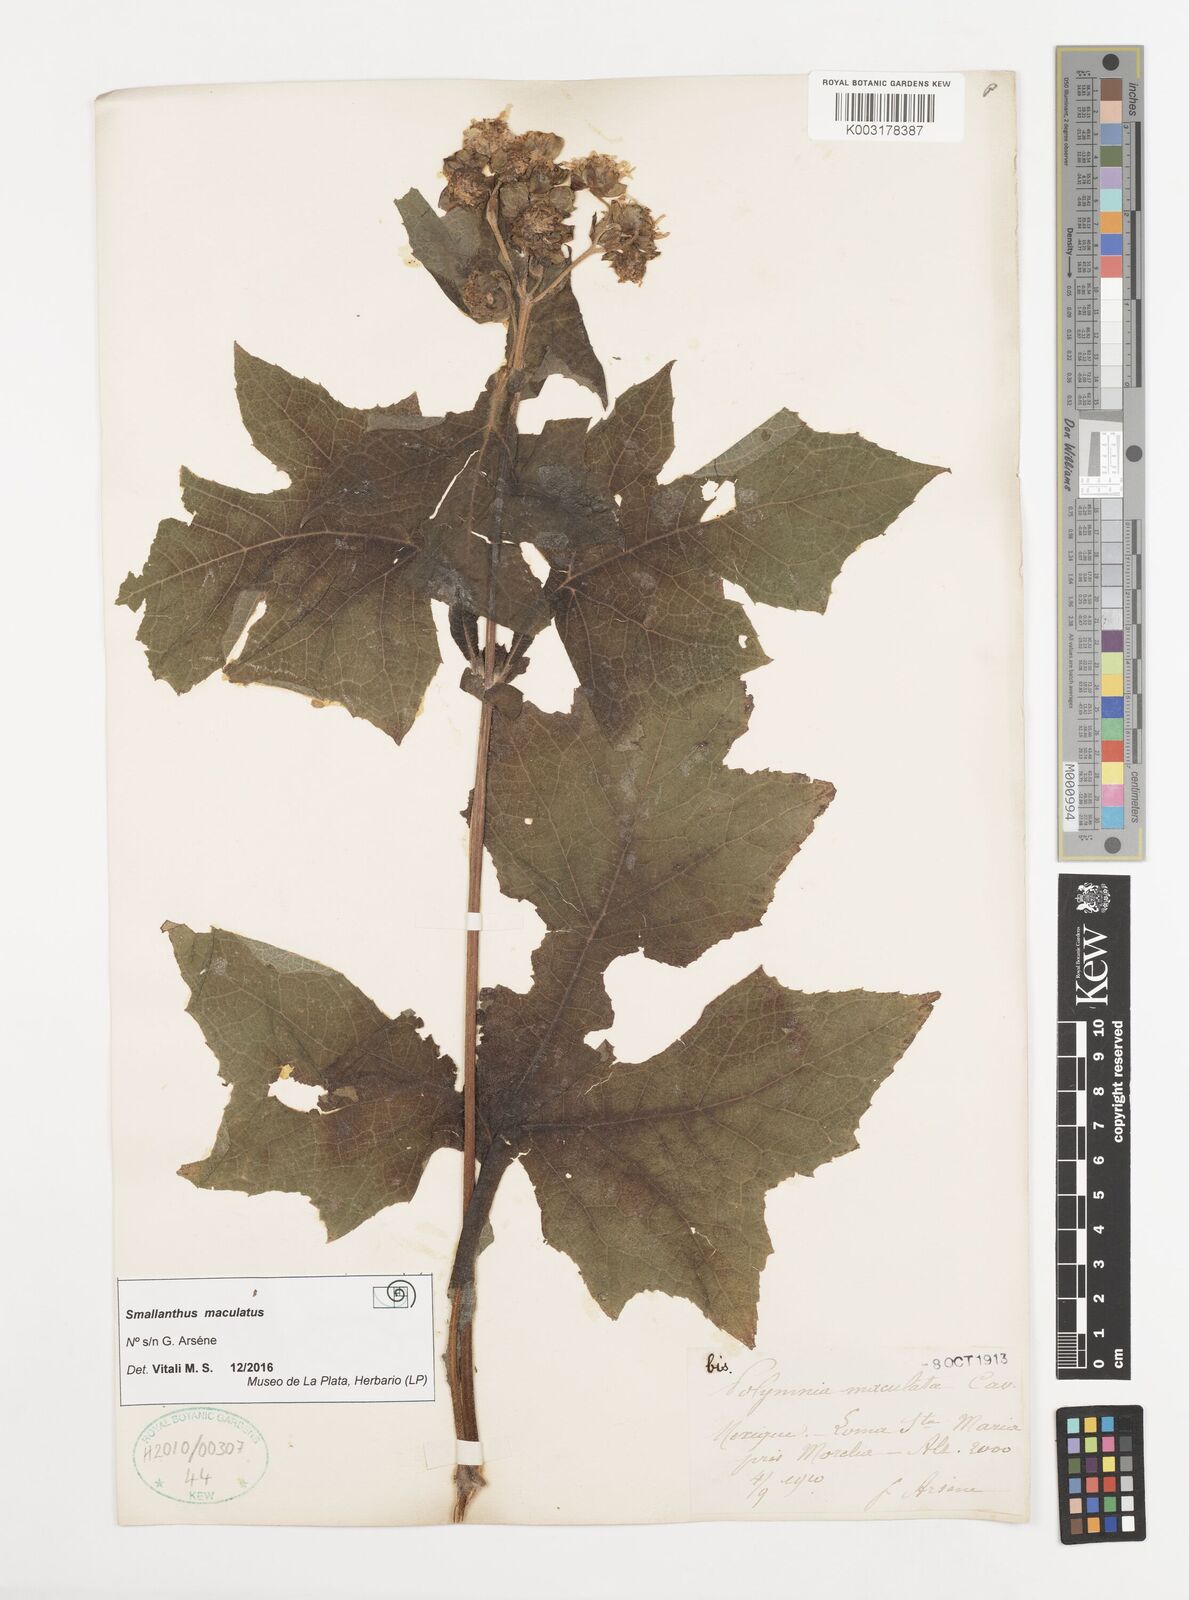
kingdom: Plantae
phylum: Tracheophyta
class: Magnoliopsida
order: Asterales
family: Asteraceae
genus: Smallanthus
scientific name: Smallanthus maculatus
